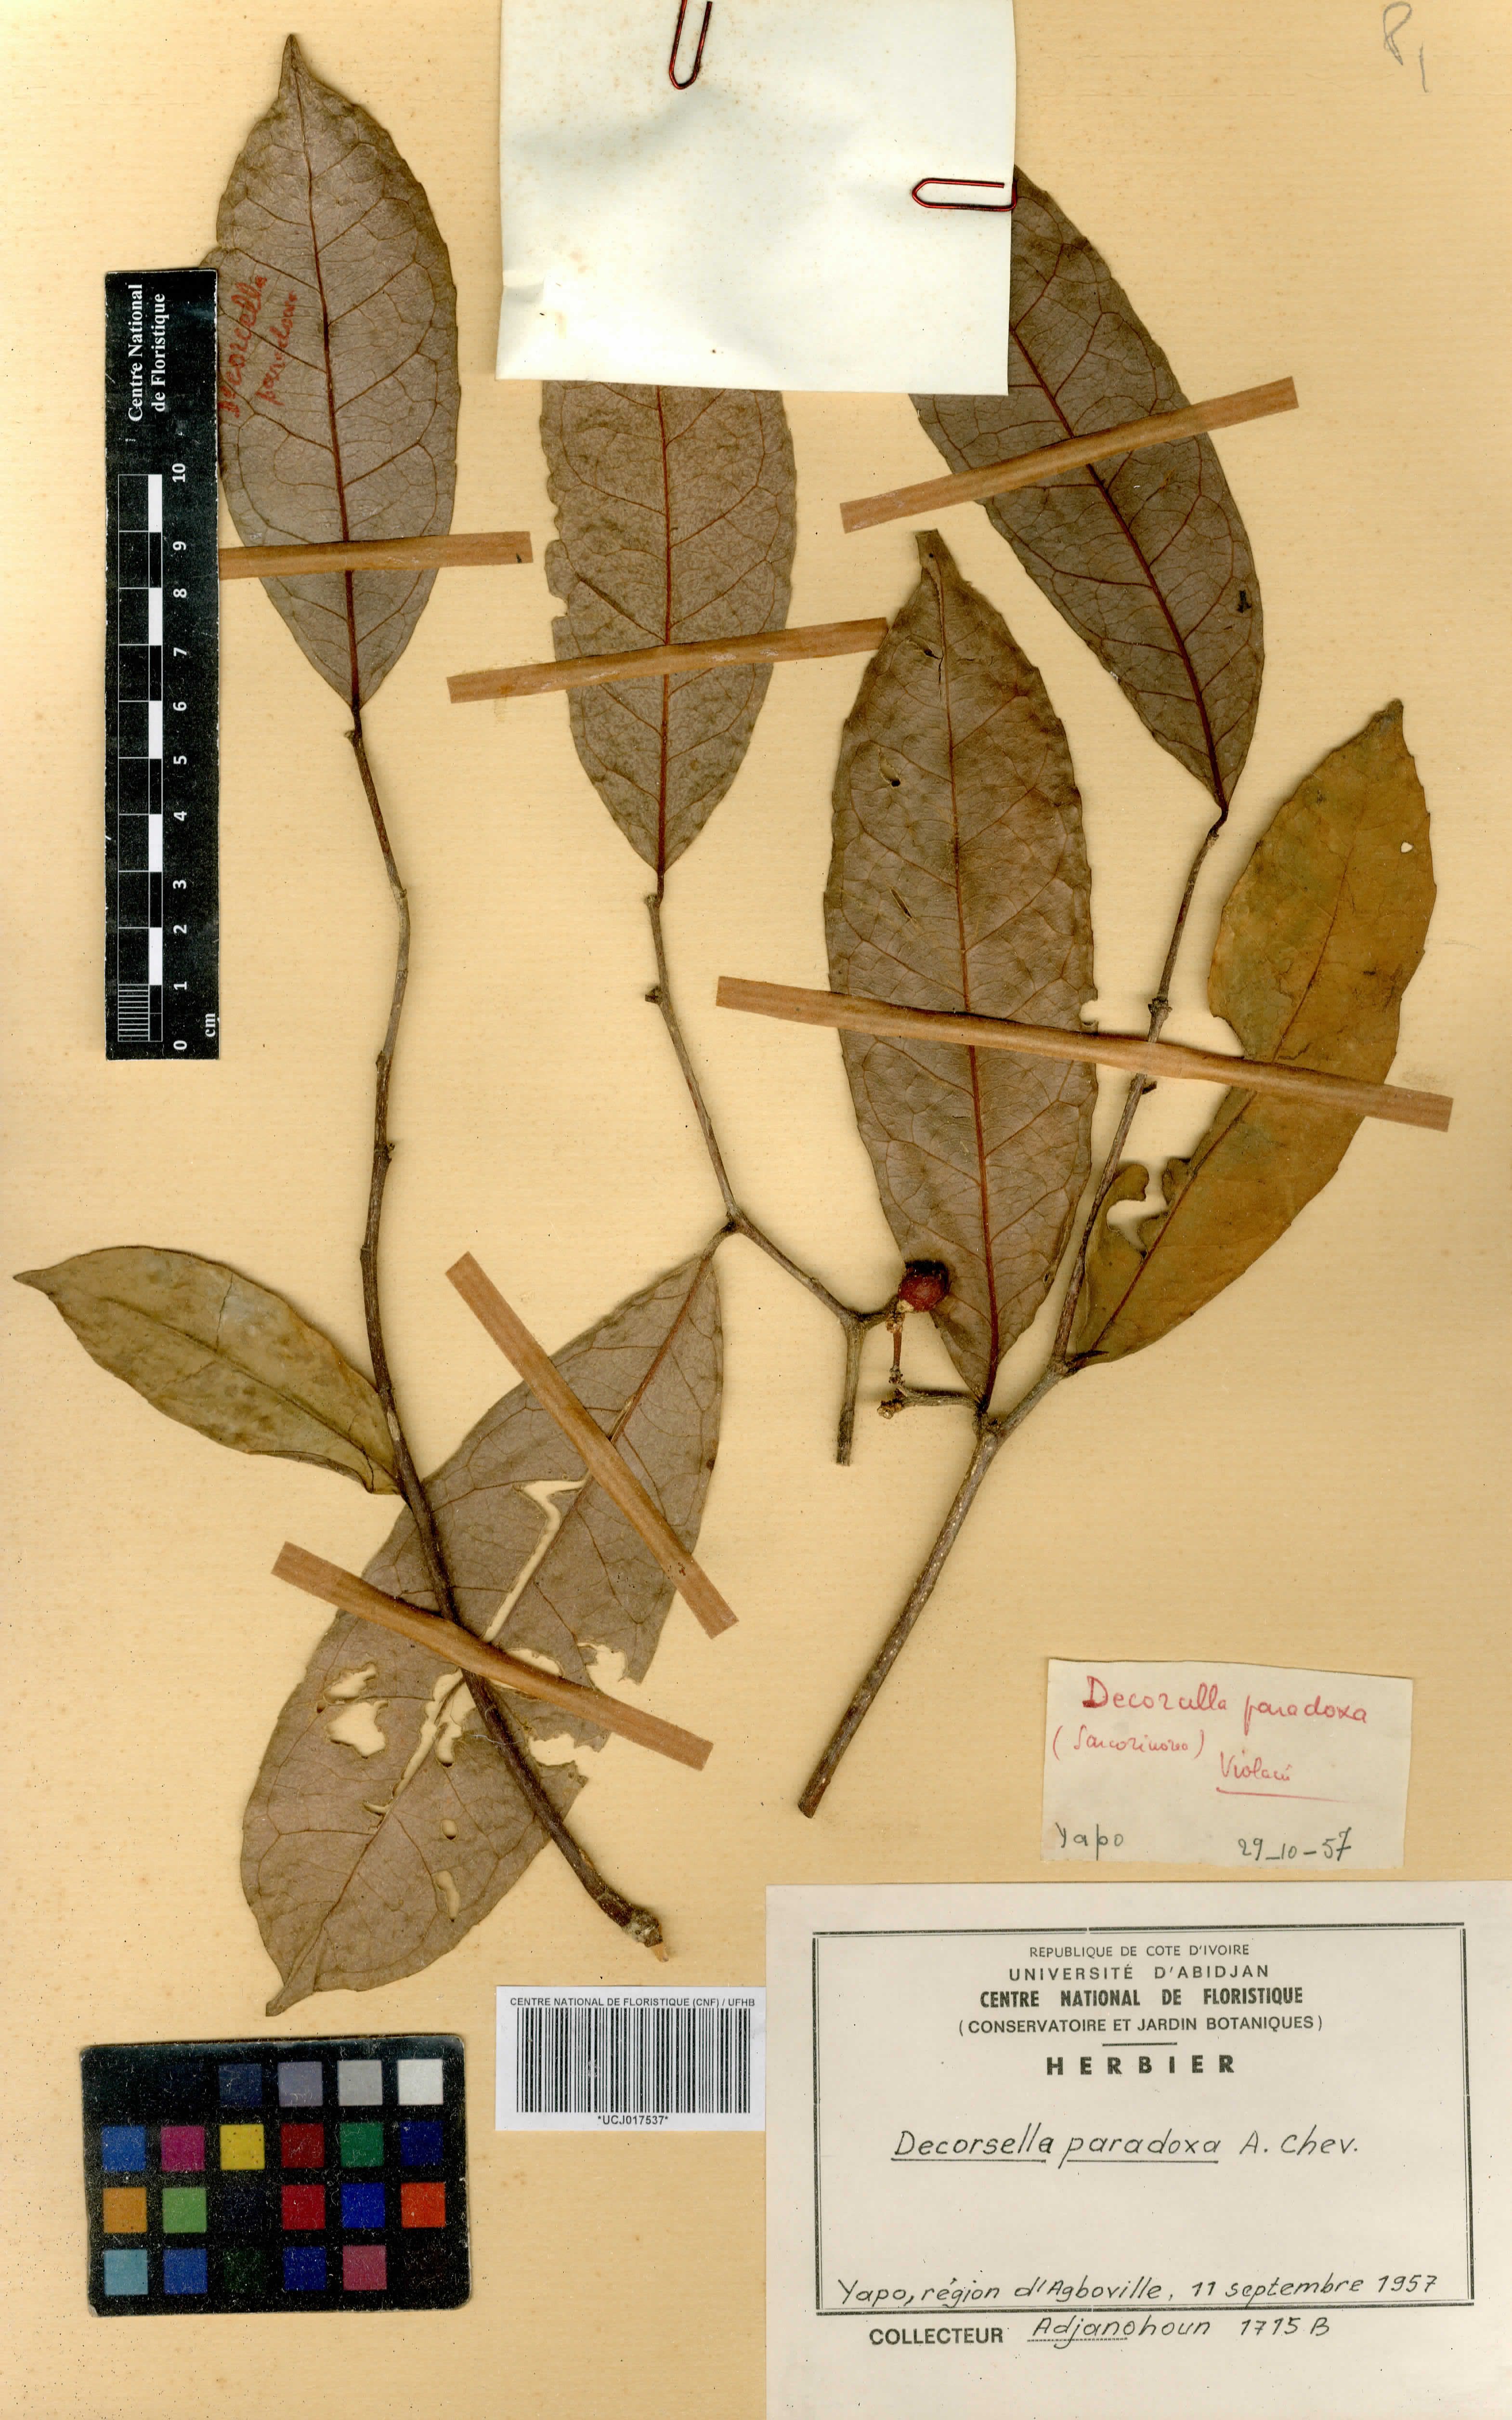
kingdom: Plantae
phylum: Tracheophyta
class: Magnoliopsida
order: Malpighiales
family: Violaceae
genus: Decorsella
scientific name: Decorsella paradoxa
